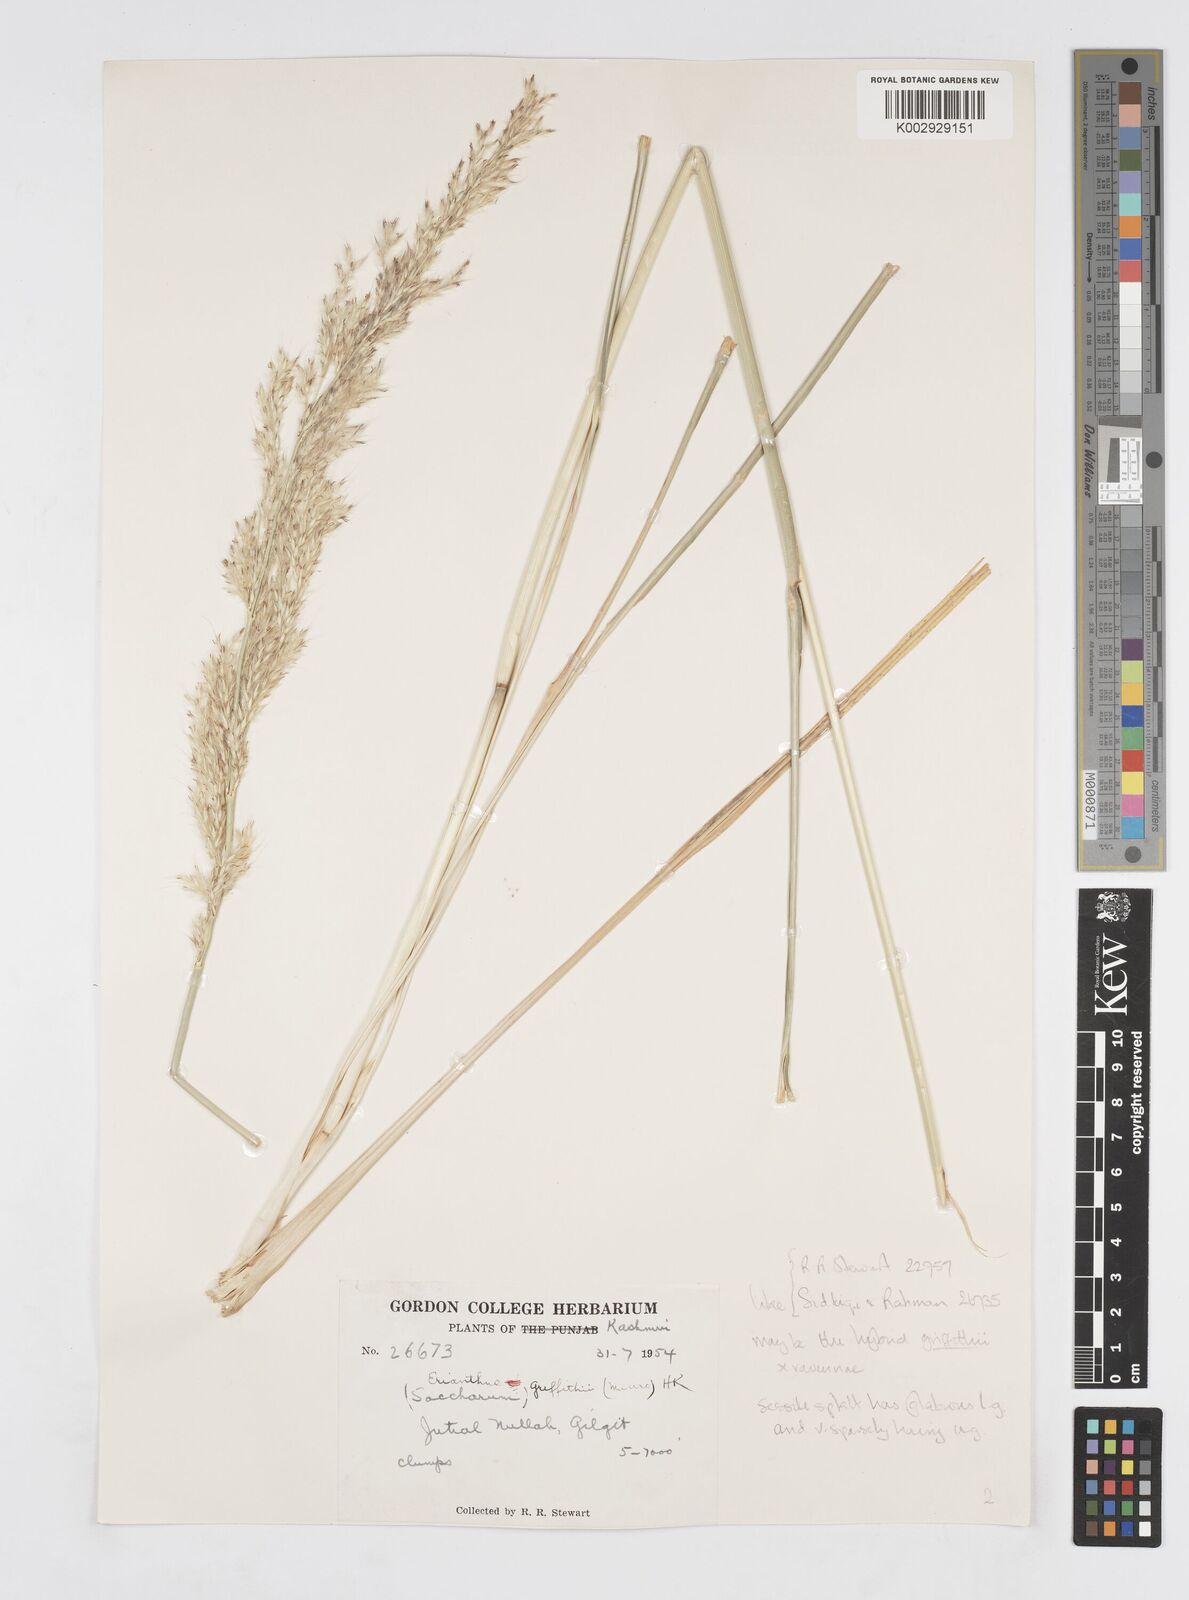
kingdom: Plantae
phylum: Tracheophyta
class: Liliopsida
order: Poales
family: Poaceae
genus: Saccharum
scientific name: Saccharum
